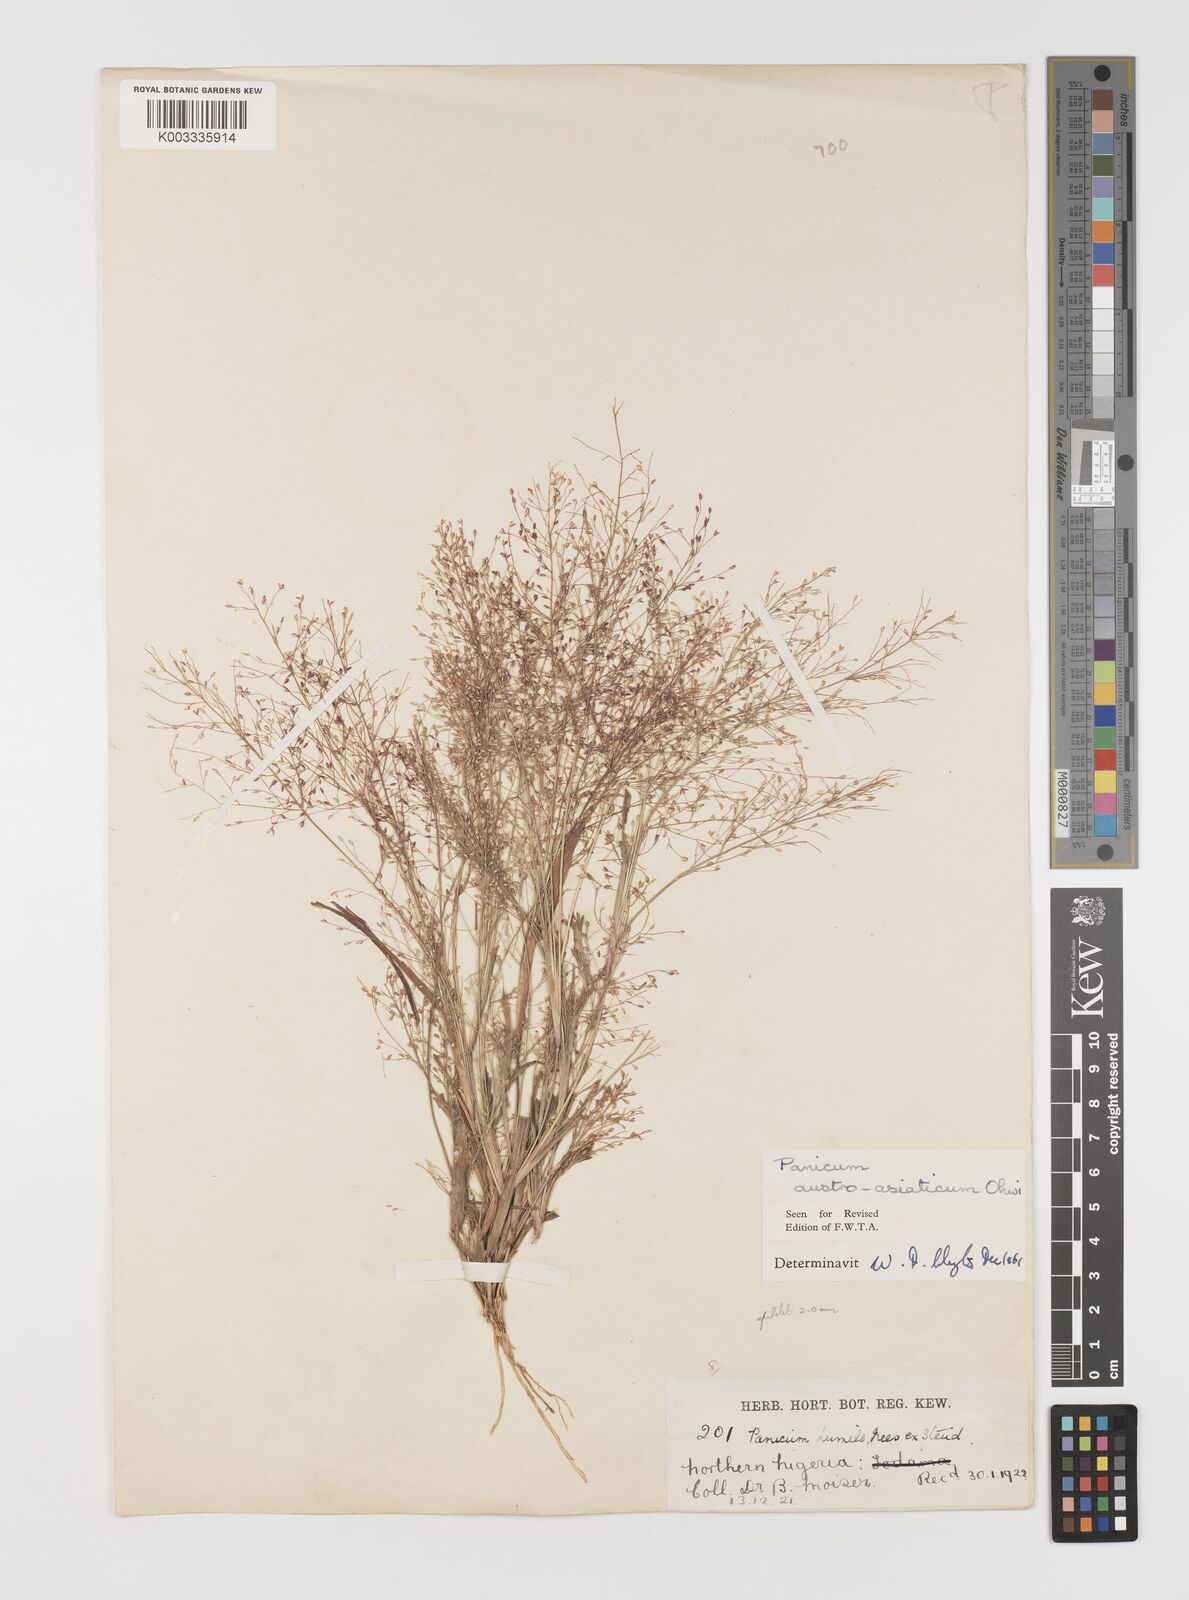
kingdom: Plantae
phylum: Tracheophyta
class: Liliopsida
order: Poales
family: Poaceae
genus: Panicum
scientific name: Panicum humile
